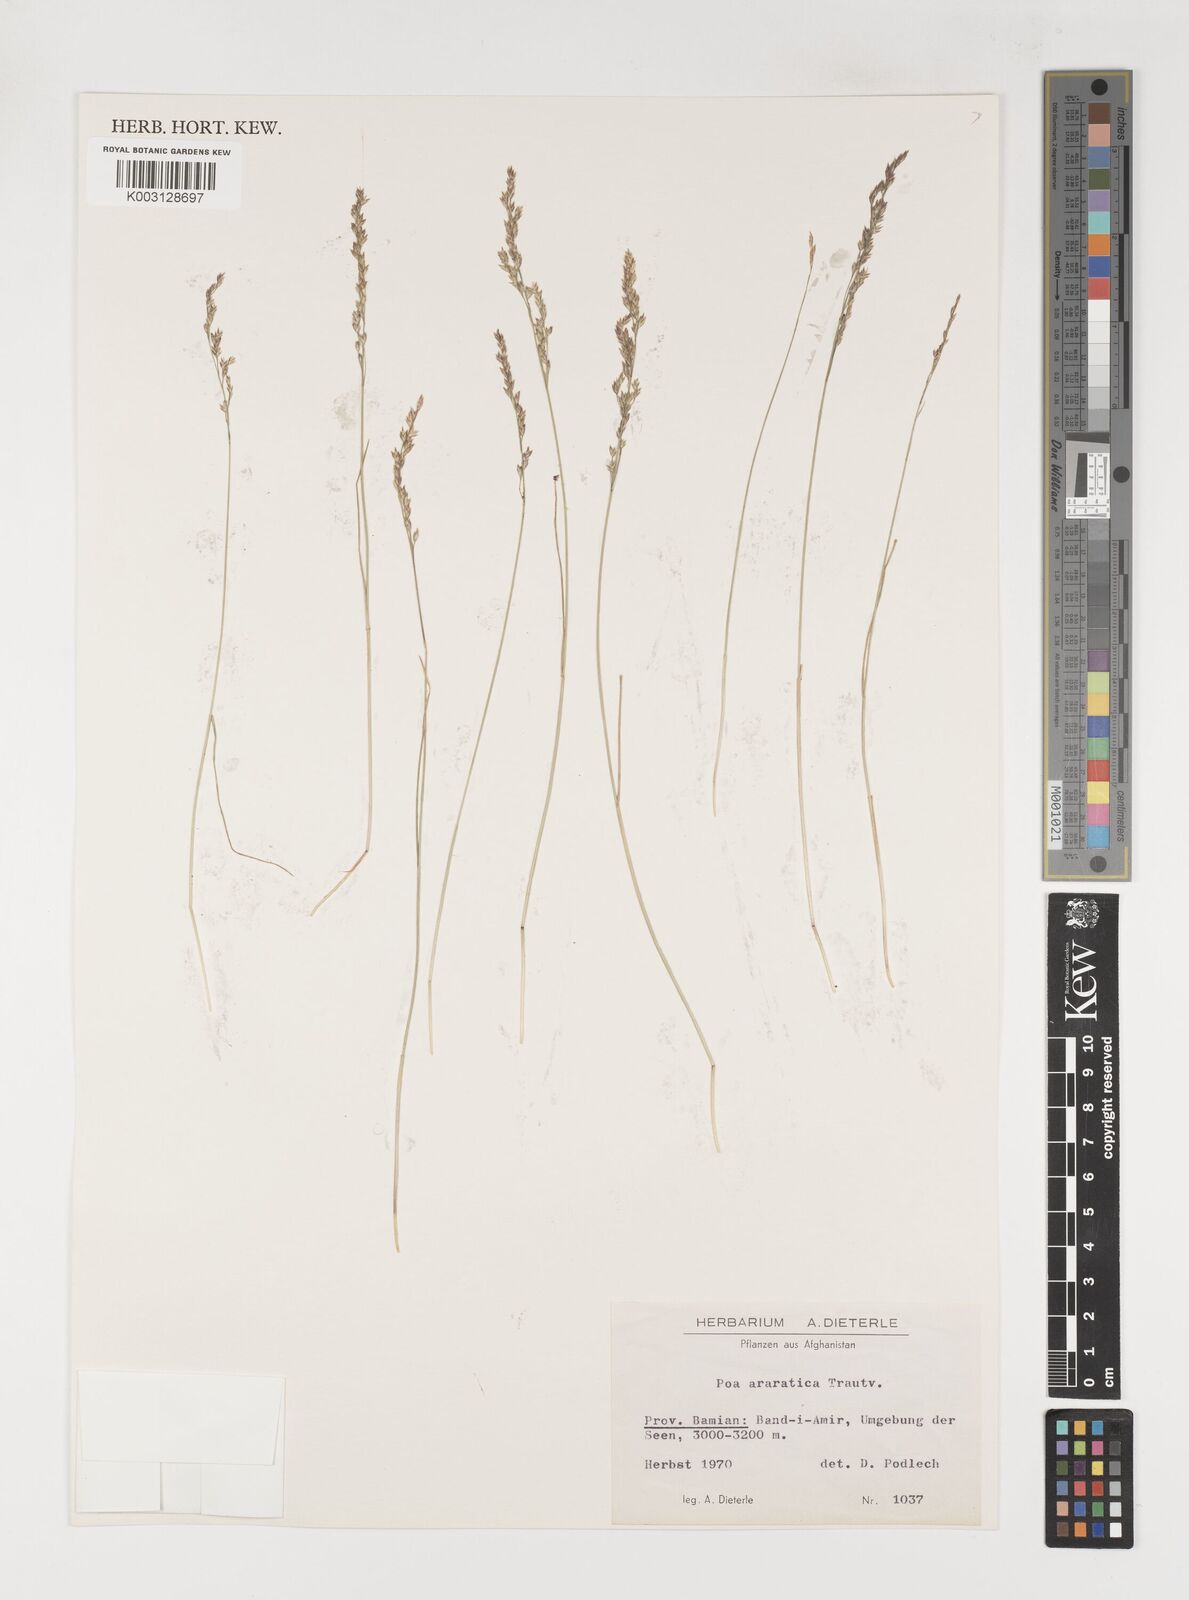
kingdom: Plantae
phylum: Tracheophyta
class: Liliopsida
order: Poales
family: Poaceae
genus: Poa
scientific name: Poa araratica
